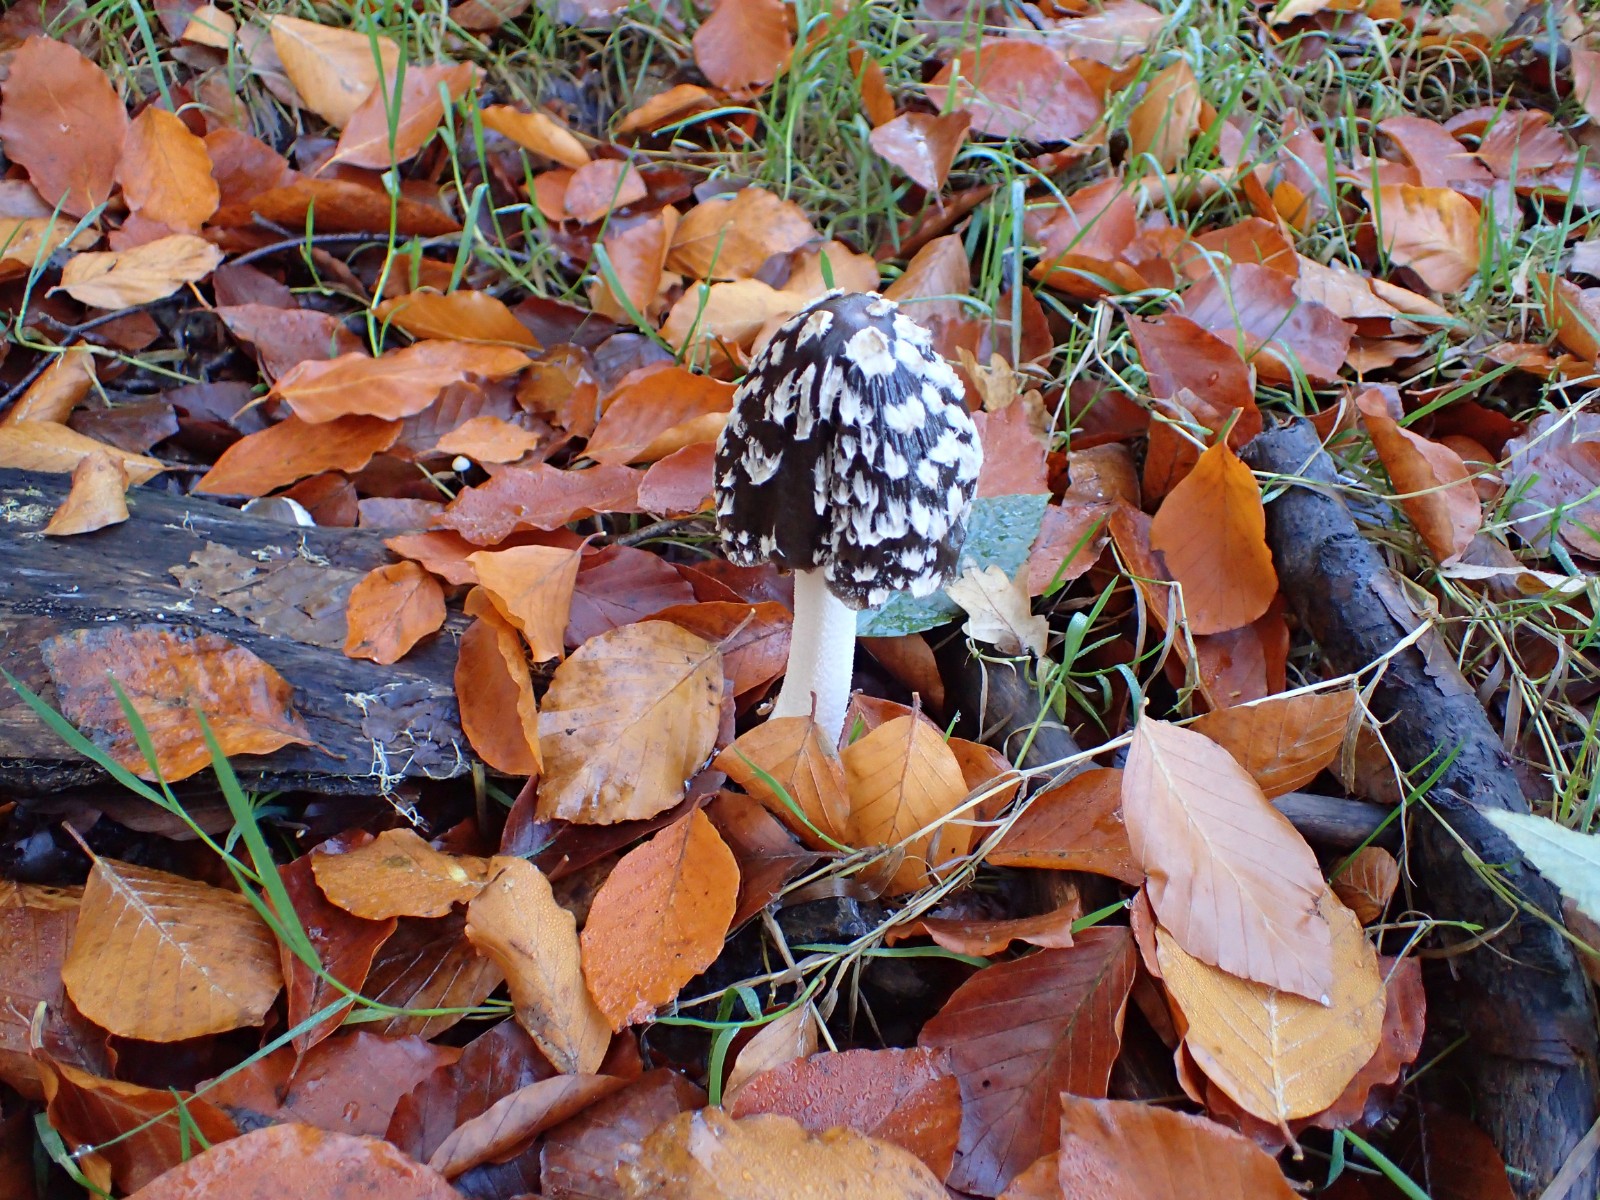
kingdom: Fungi
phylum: Basidiomycota
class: Agaricomycetes
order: Agaricales
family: Psathyrellaceae
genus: Coprinopsis
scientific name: Coprinopsis picacea
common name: skade-blækhat
